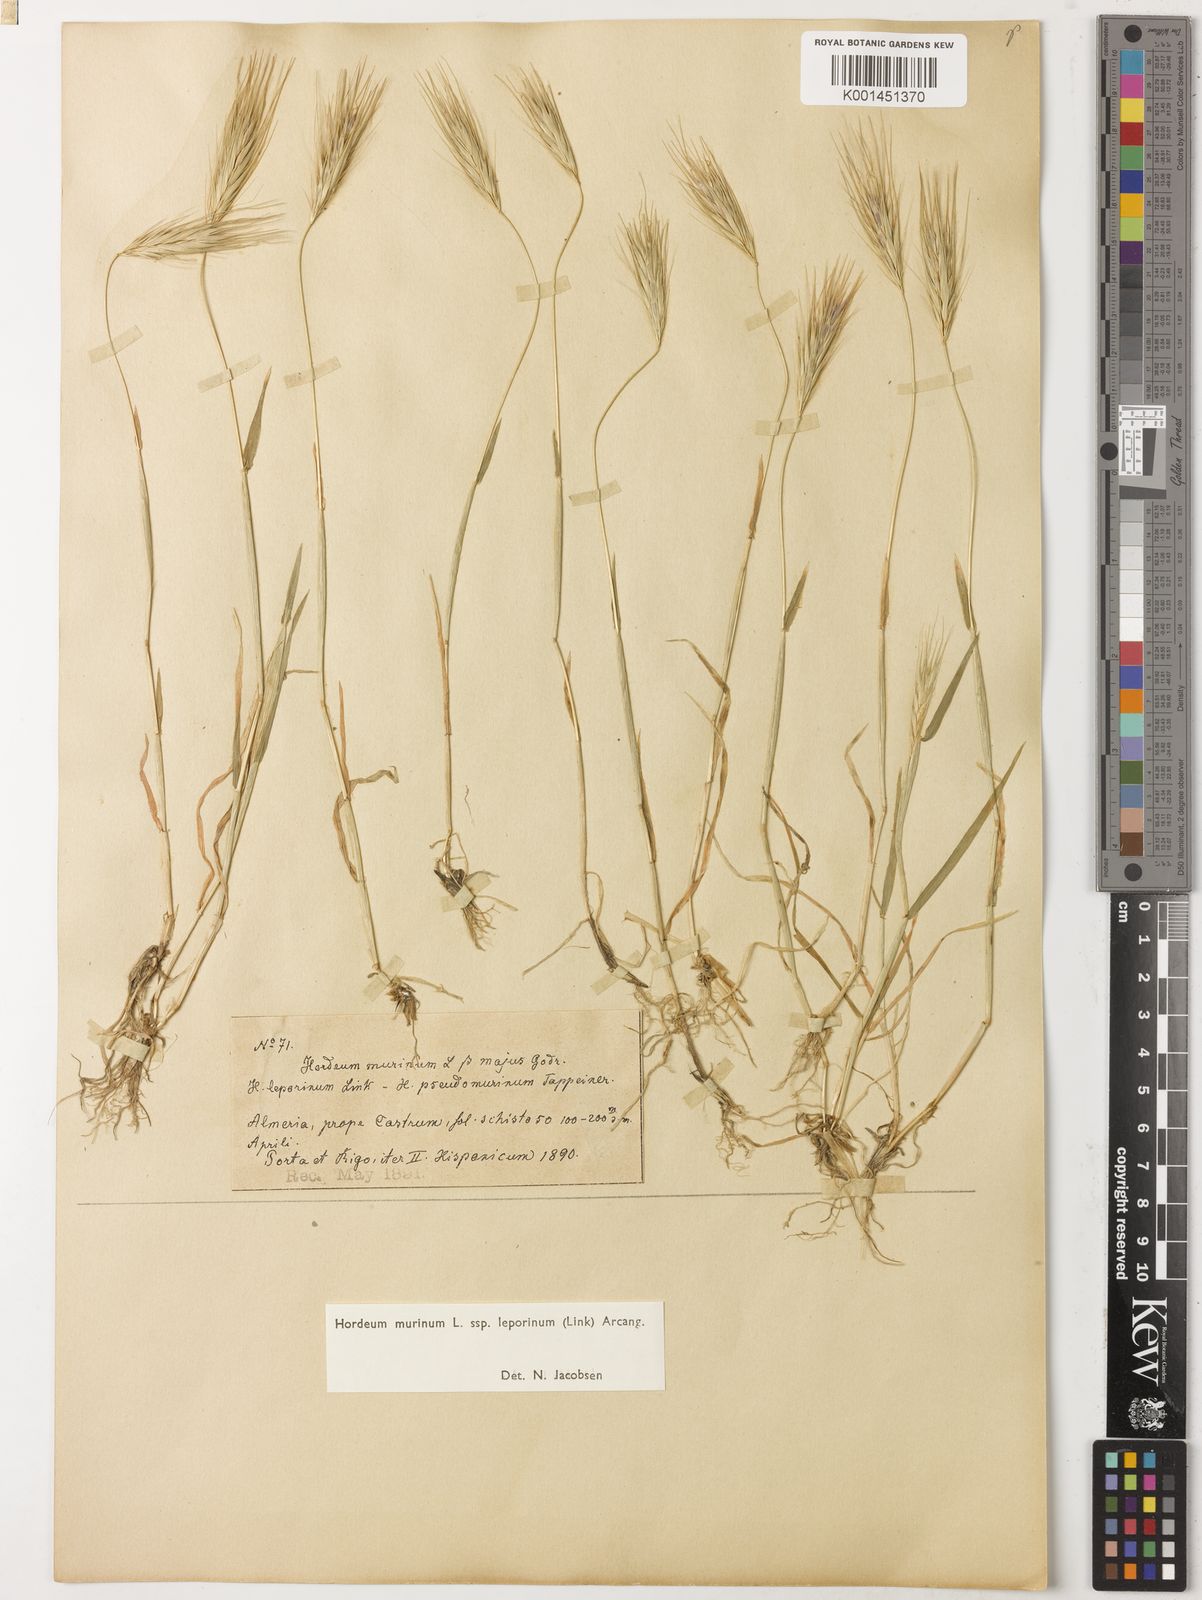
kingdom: Plantae
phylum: Tracheophyta
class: Liliopsida
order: Poales
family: Poaceae
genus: Hordeum
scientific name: Hordeum murinum
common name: Wall barley
